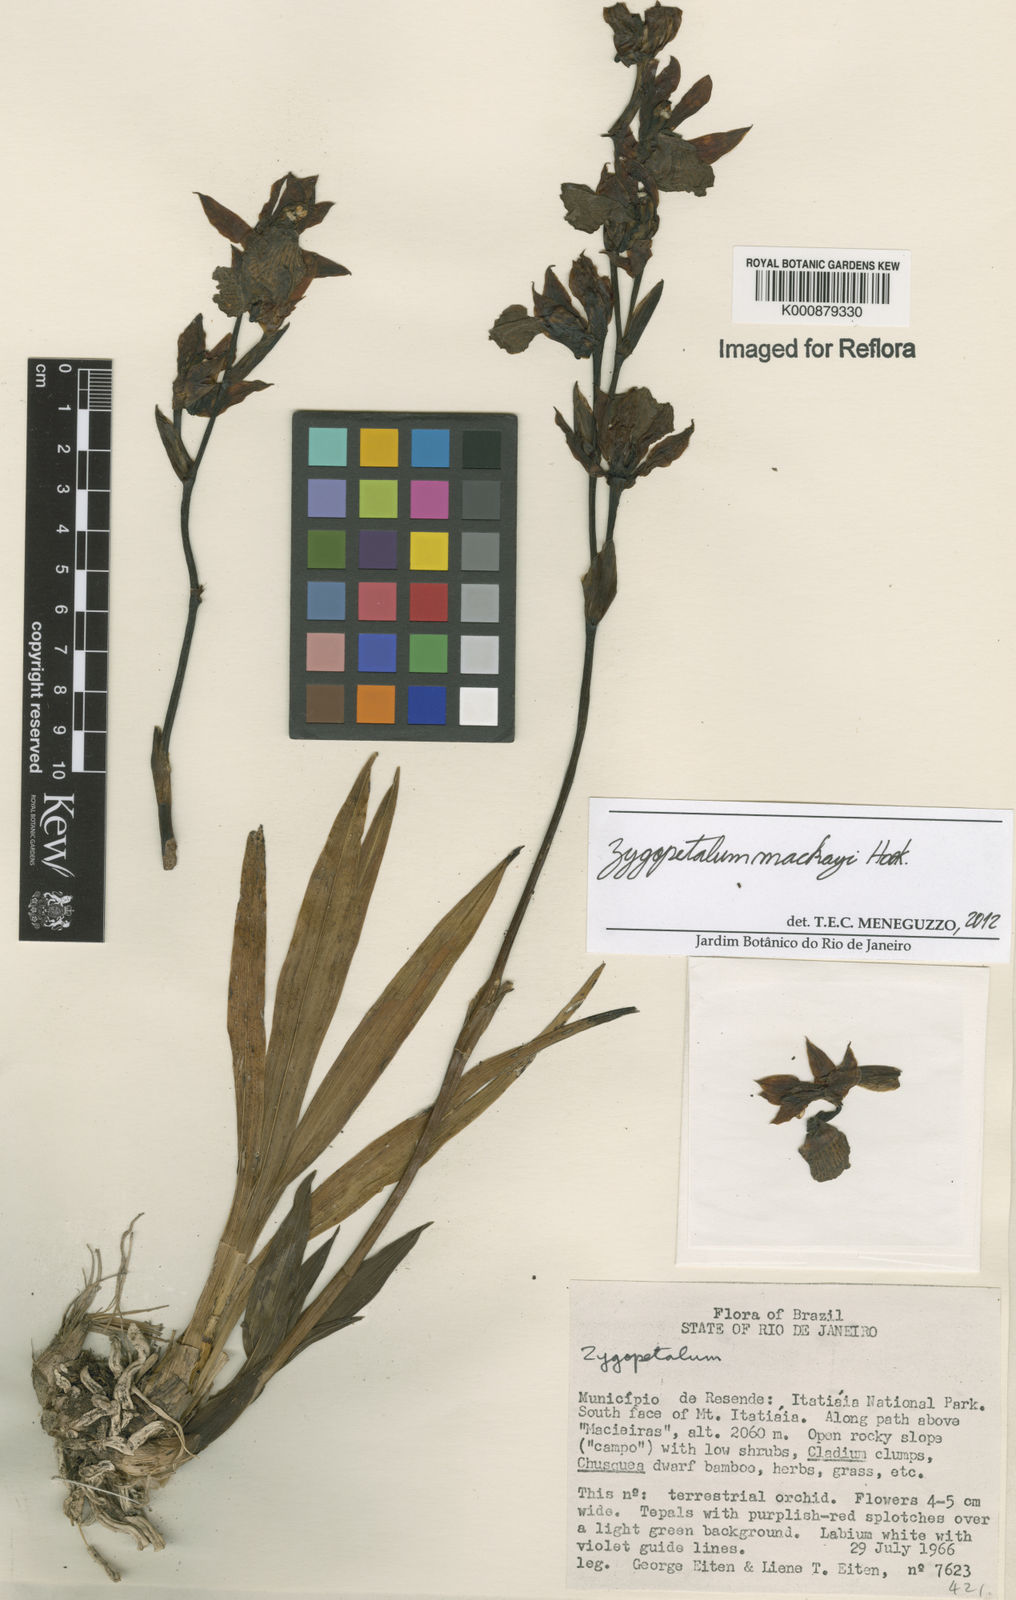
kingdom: Plantae
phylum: Tracheophyta
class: Liliopsida
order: Asparagales
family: Orchidaceae
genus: Zygopetalum
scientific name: Zygopetalum maculatum
